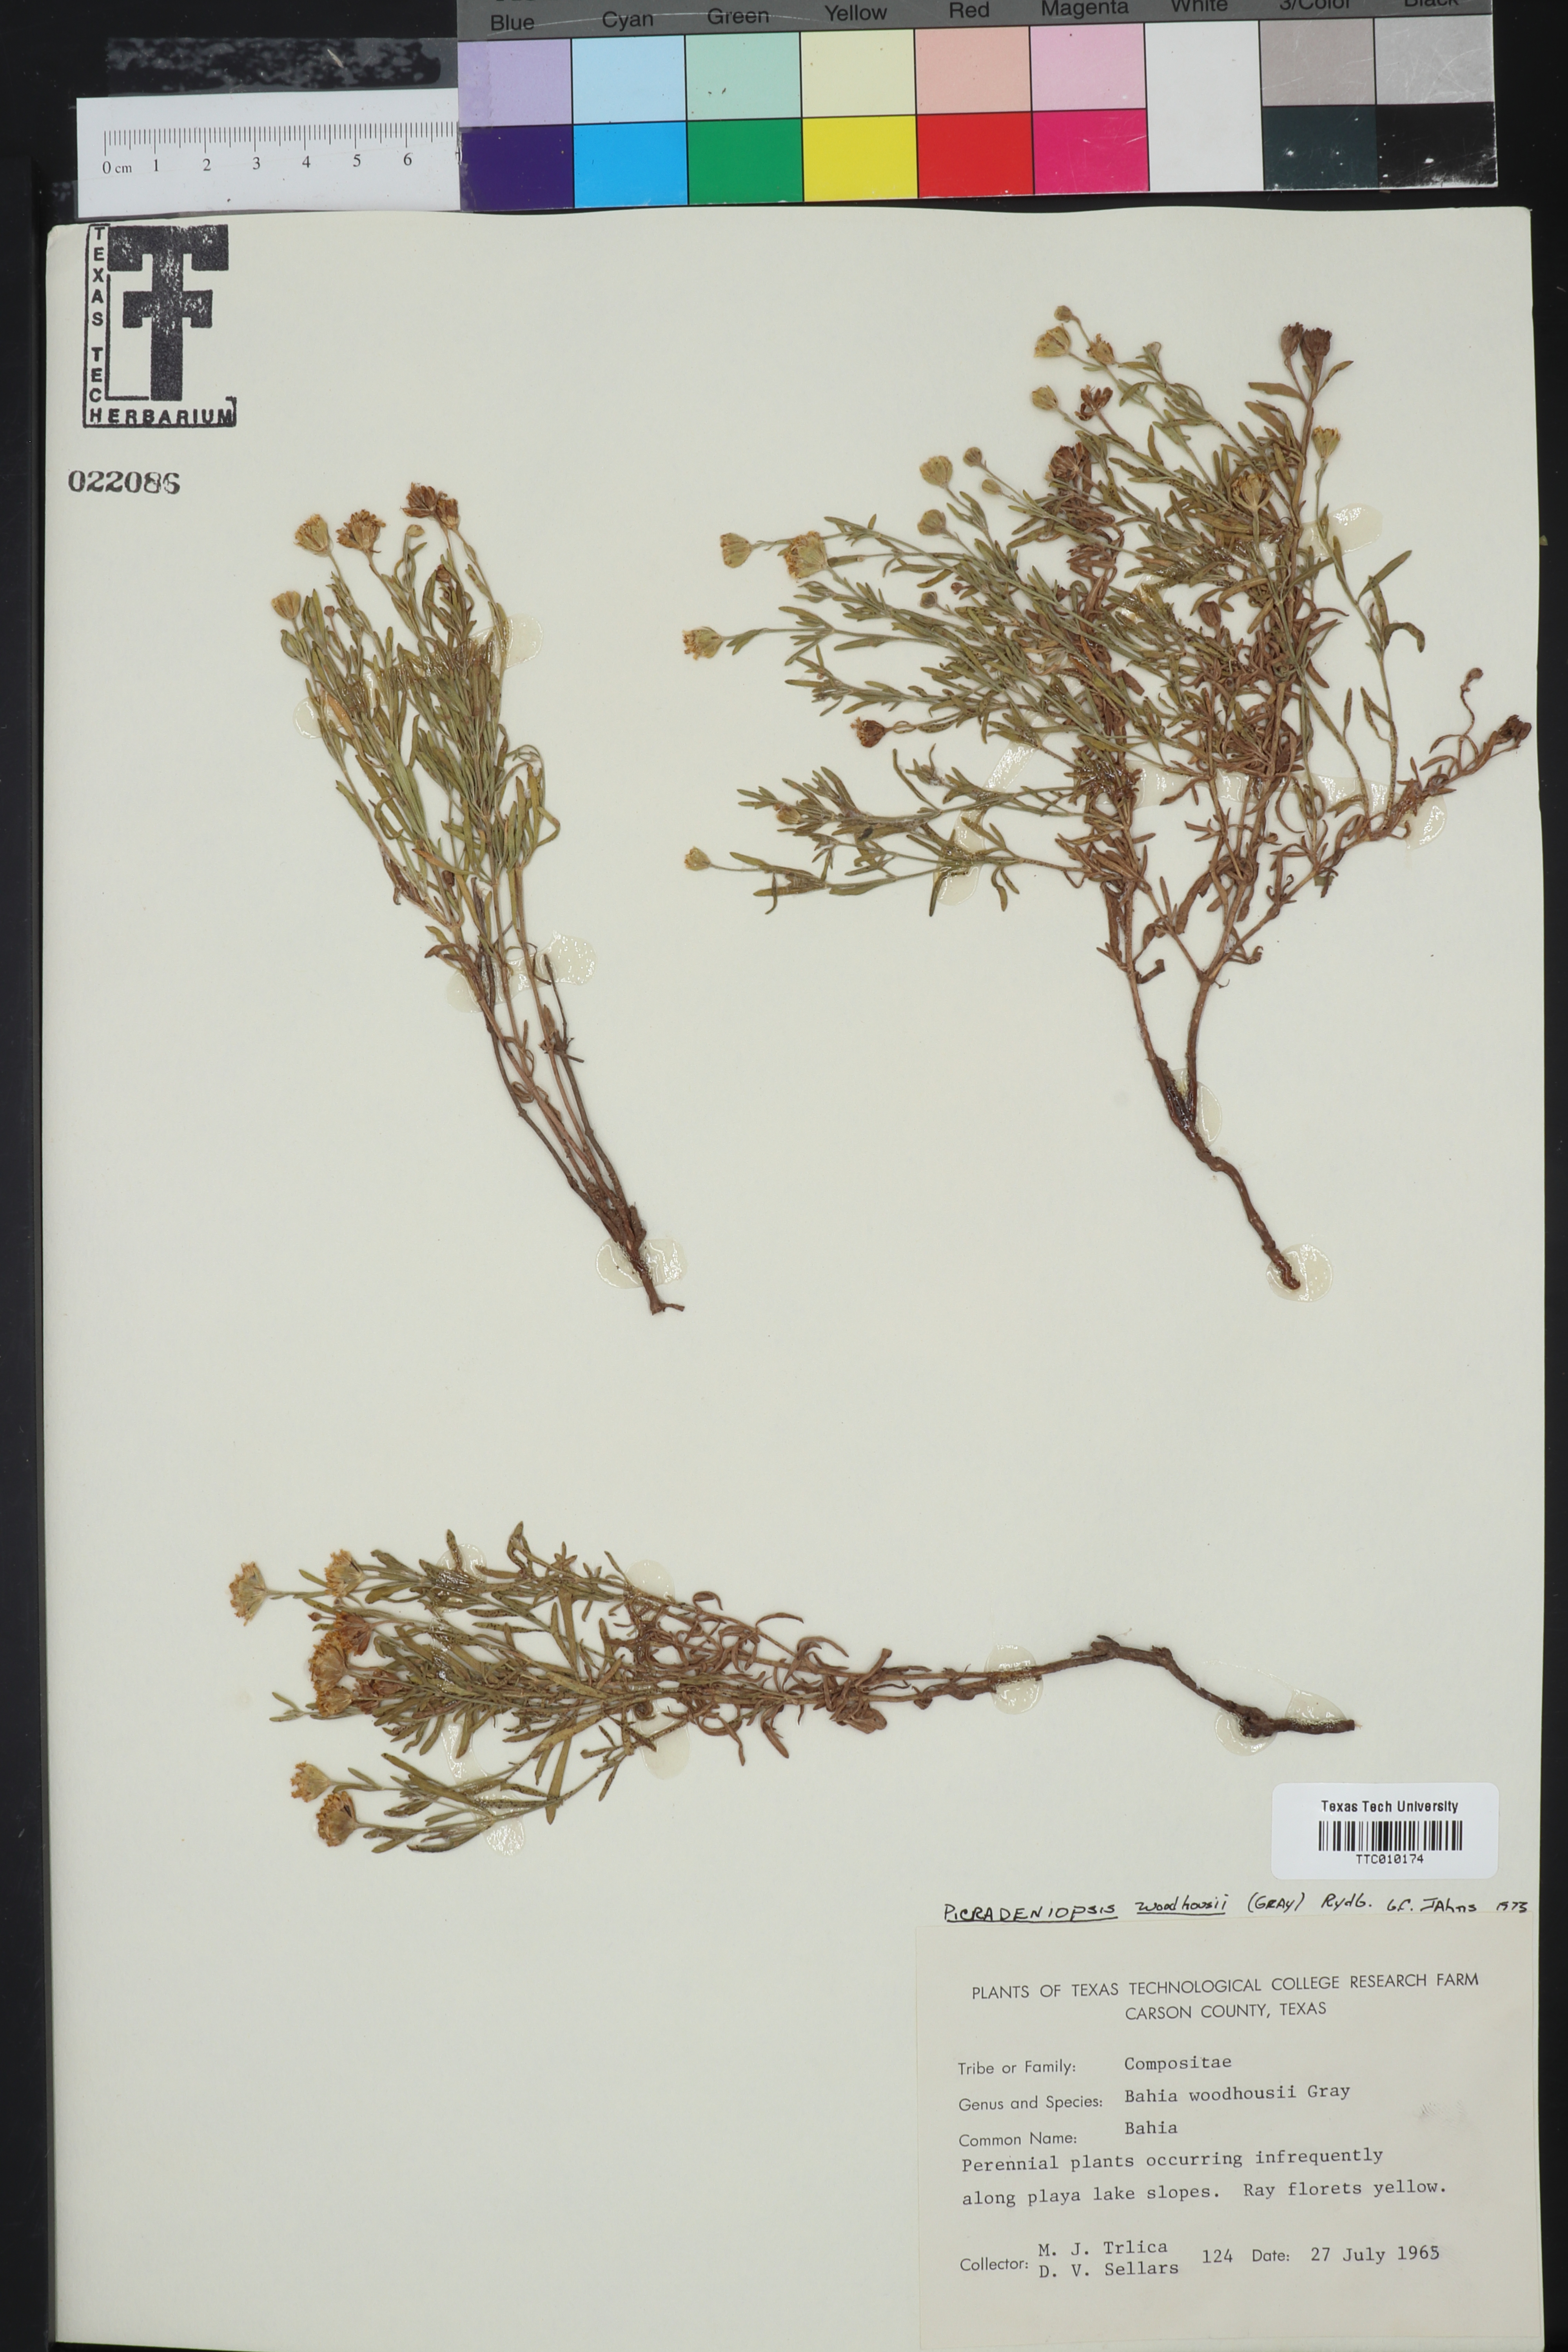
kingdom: Plantae
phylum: Tracheophyta
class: Magnoliopsida
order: Asterales
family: Asteraceae
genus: Picradeniopsis
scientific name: Picradeniopsis woodhousei
